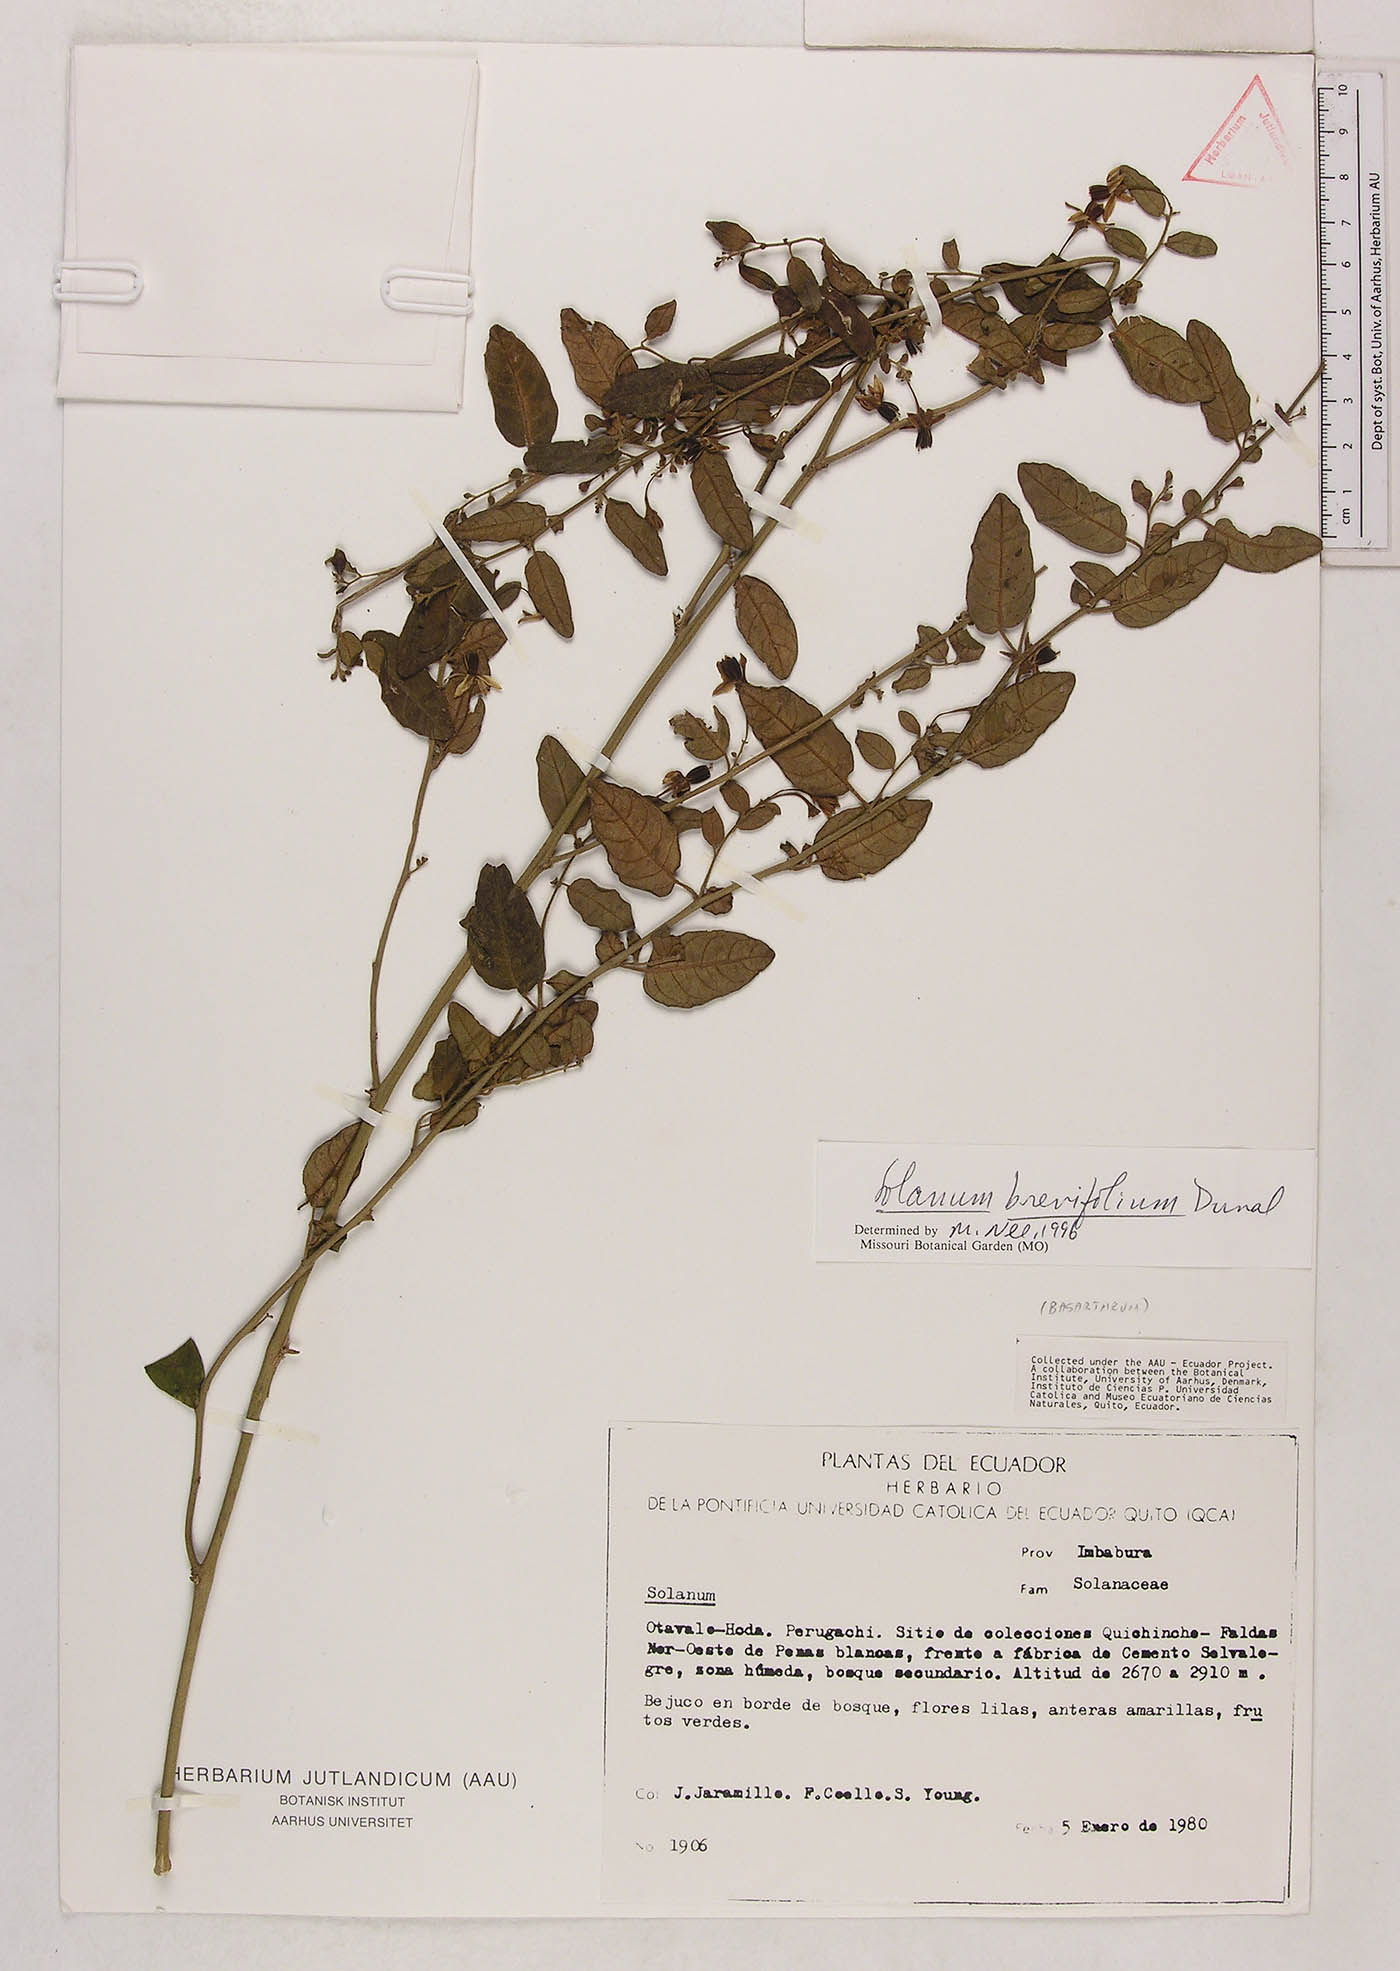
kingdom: Plantae
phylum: Tracheophyta
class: Magnoliopsida
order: Solanales
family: Solanaceae
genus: Solanum
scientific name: Solanum brevifolium
